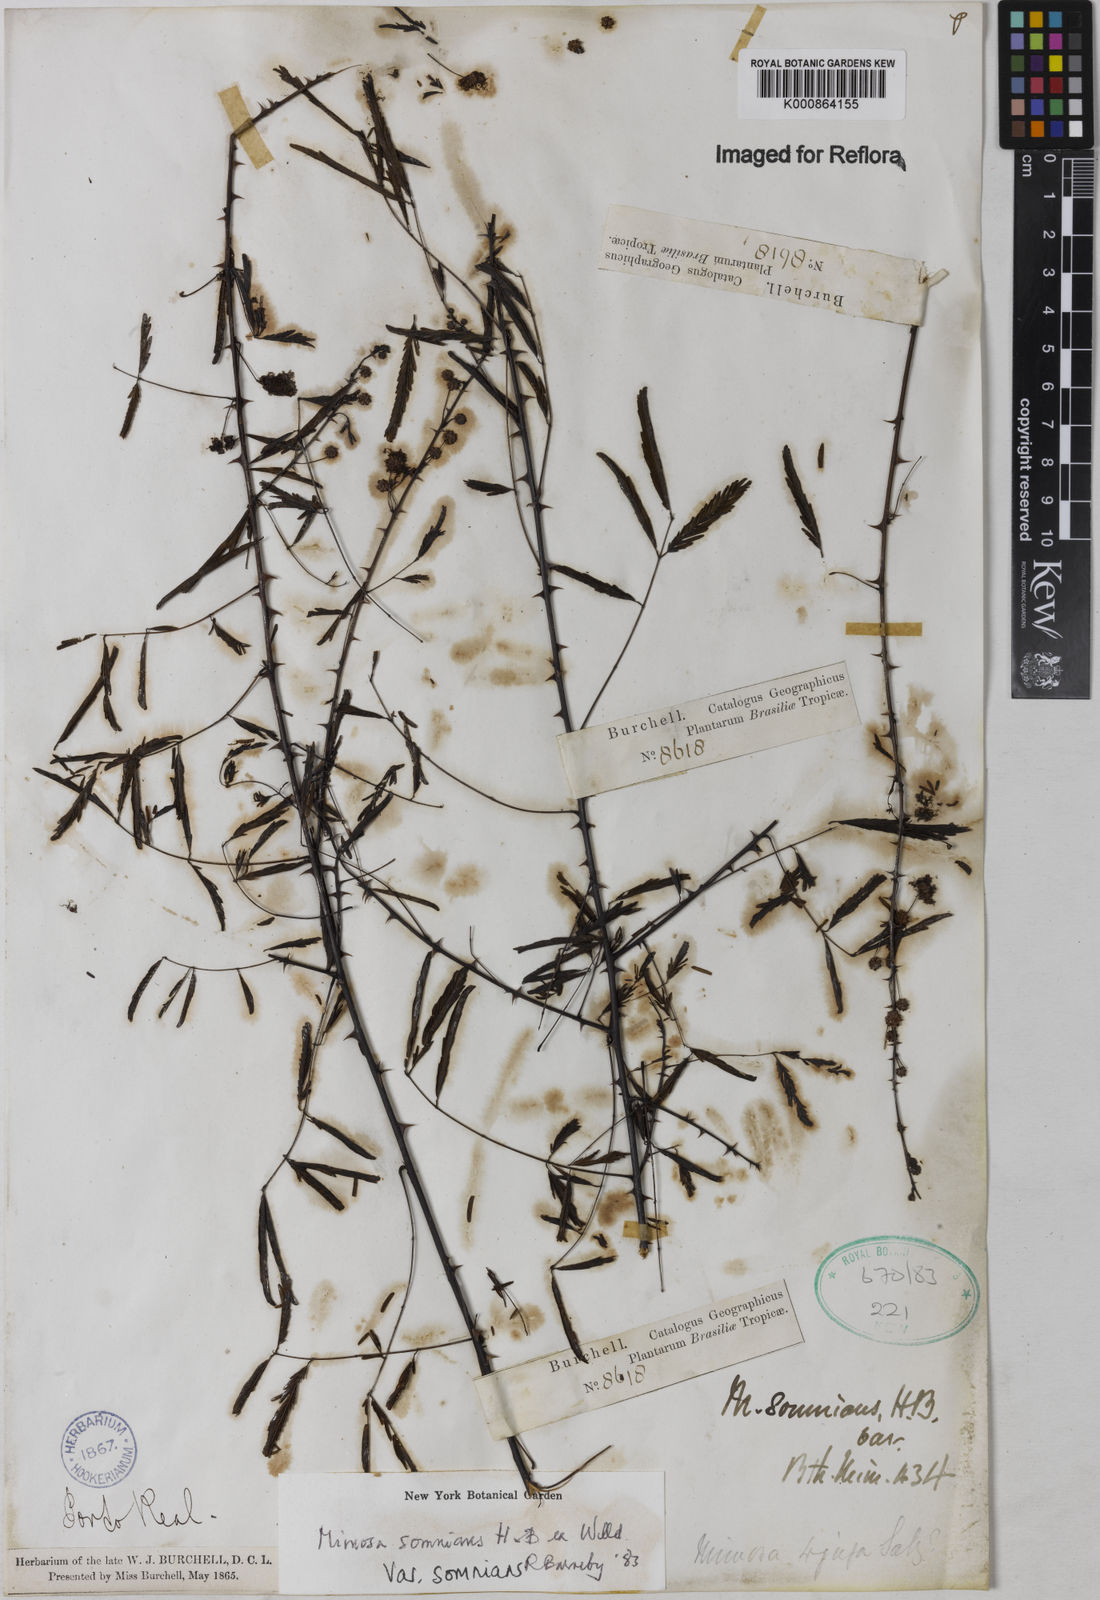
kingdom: Plantae
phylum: Tracheophyta
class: Magnoliopsida
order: Fabales
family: Fabaceae
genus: Mimosa
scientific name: Mimosa somnians
